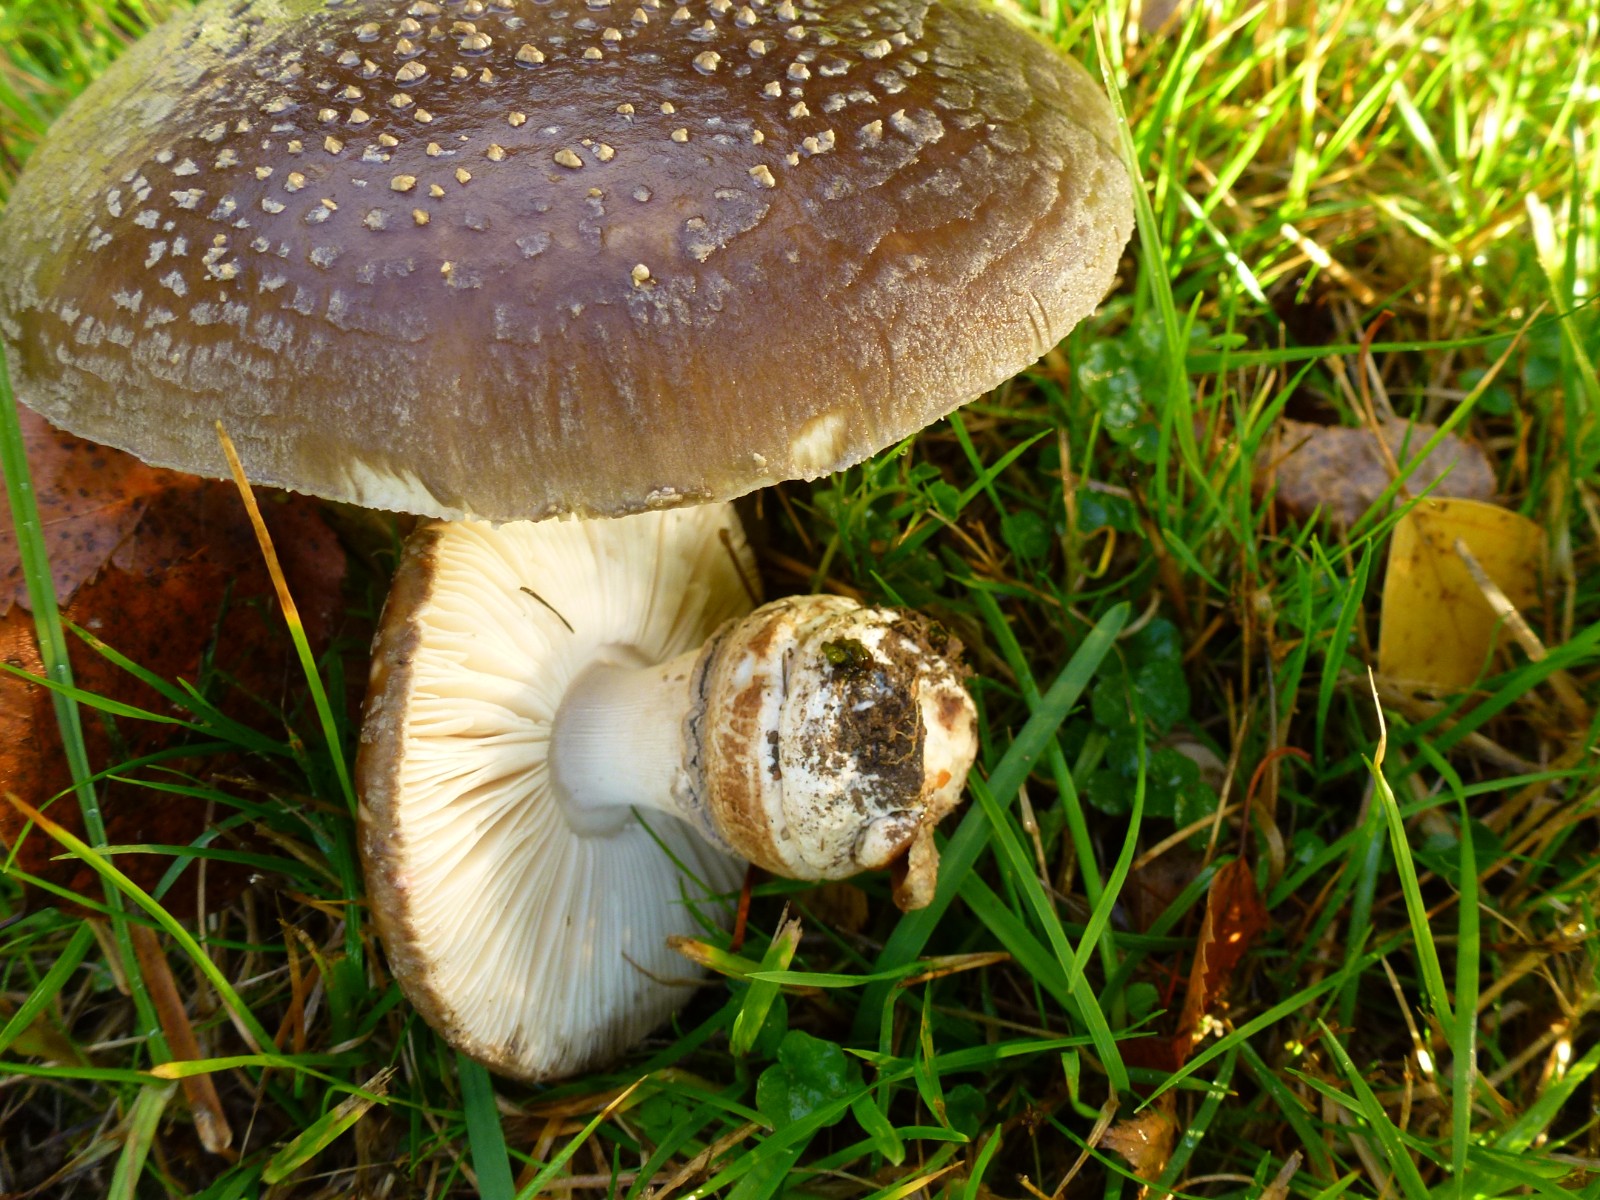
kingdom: Fungi
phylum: Basidiomycota
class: Agaricomycetes
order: Agaricales
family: Amanitaceae
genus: Amanita
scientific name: Amanita
